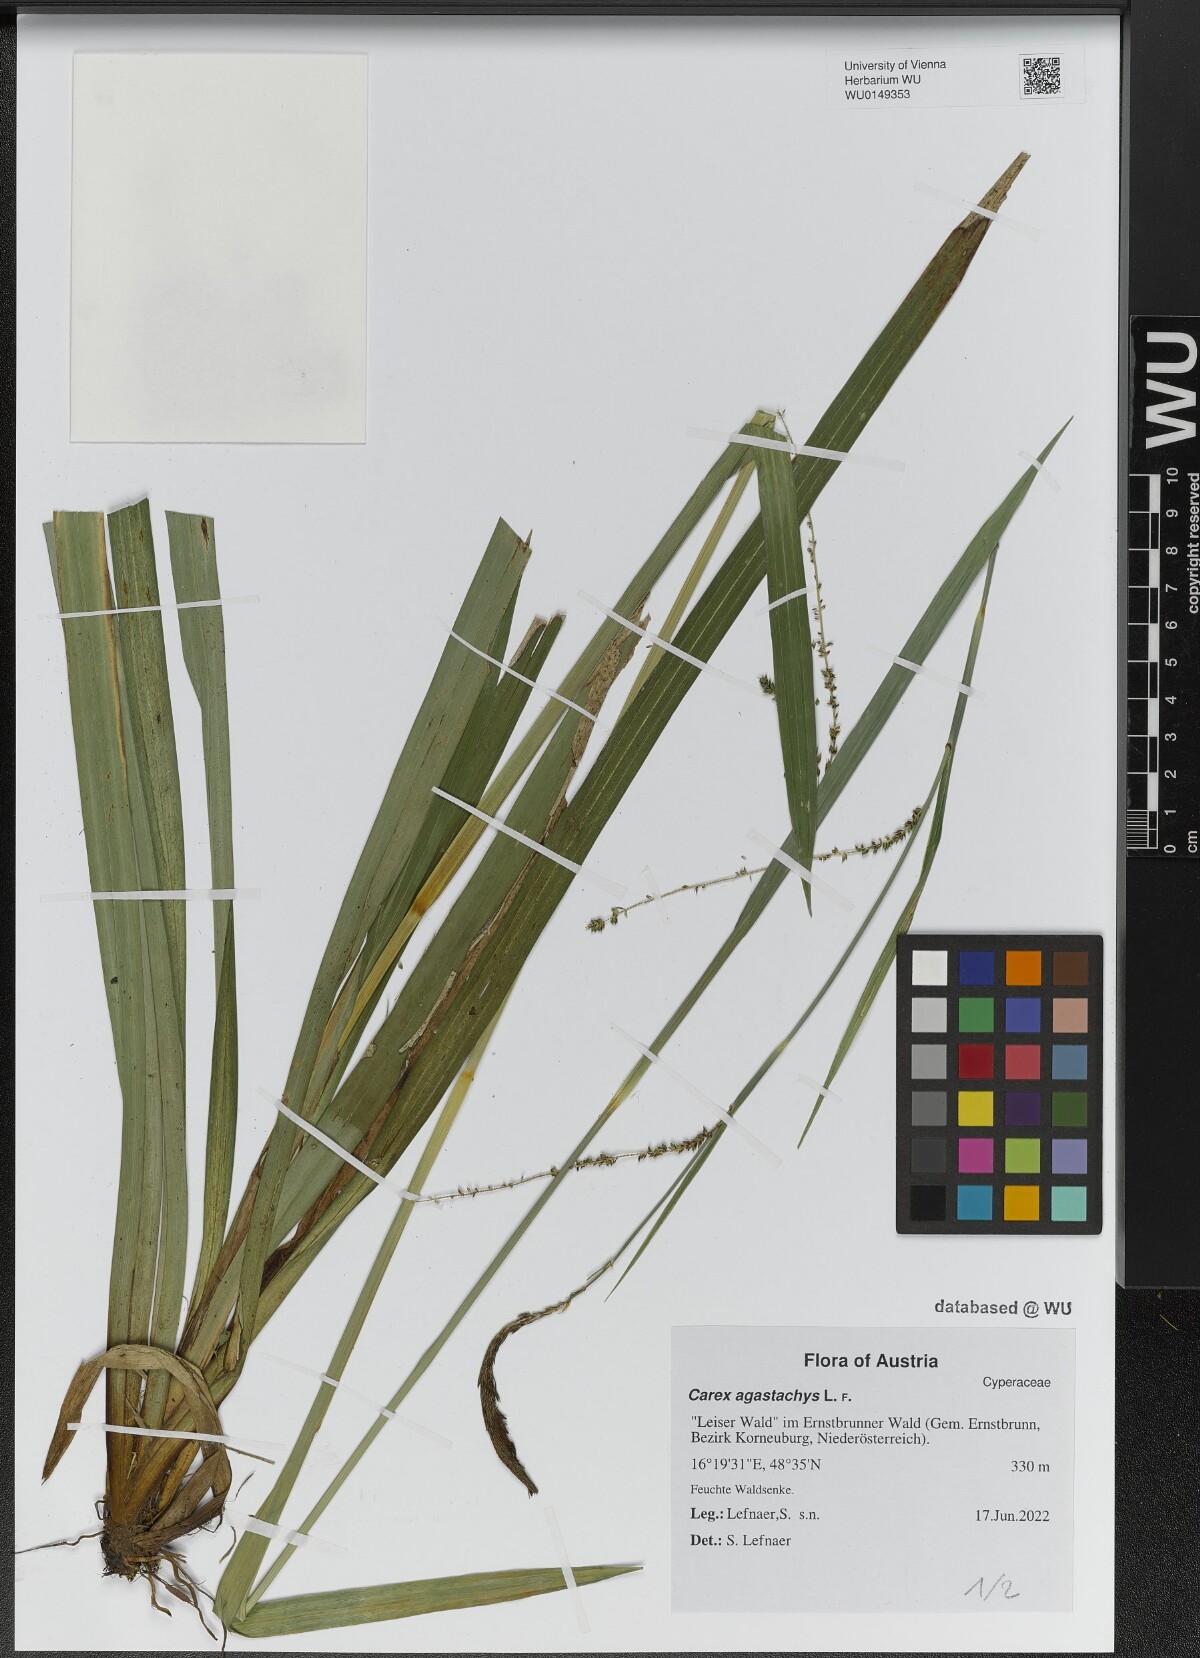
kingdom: Plantae
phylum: Tracheophyta
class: Liliopsida
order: Poales
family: Cyperaceae
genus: Carex
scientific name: Carex agastachys
